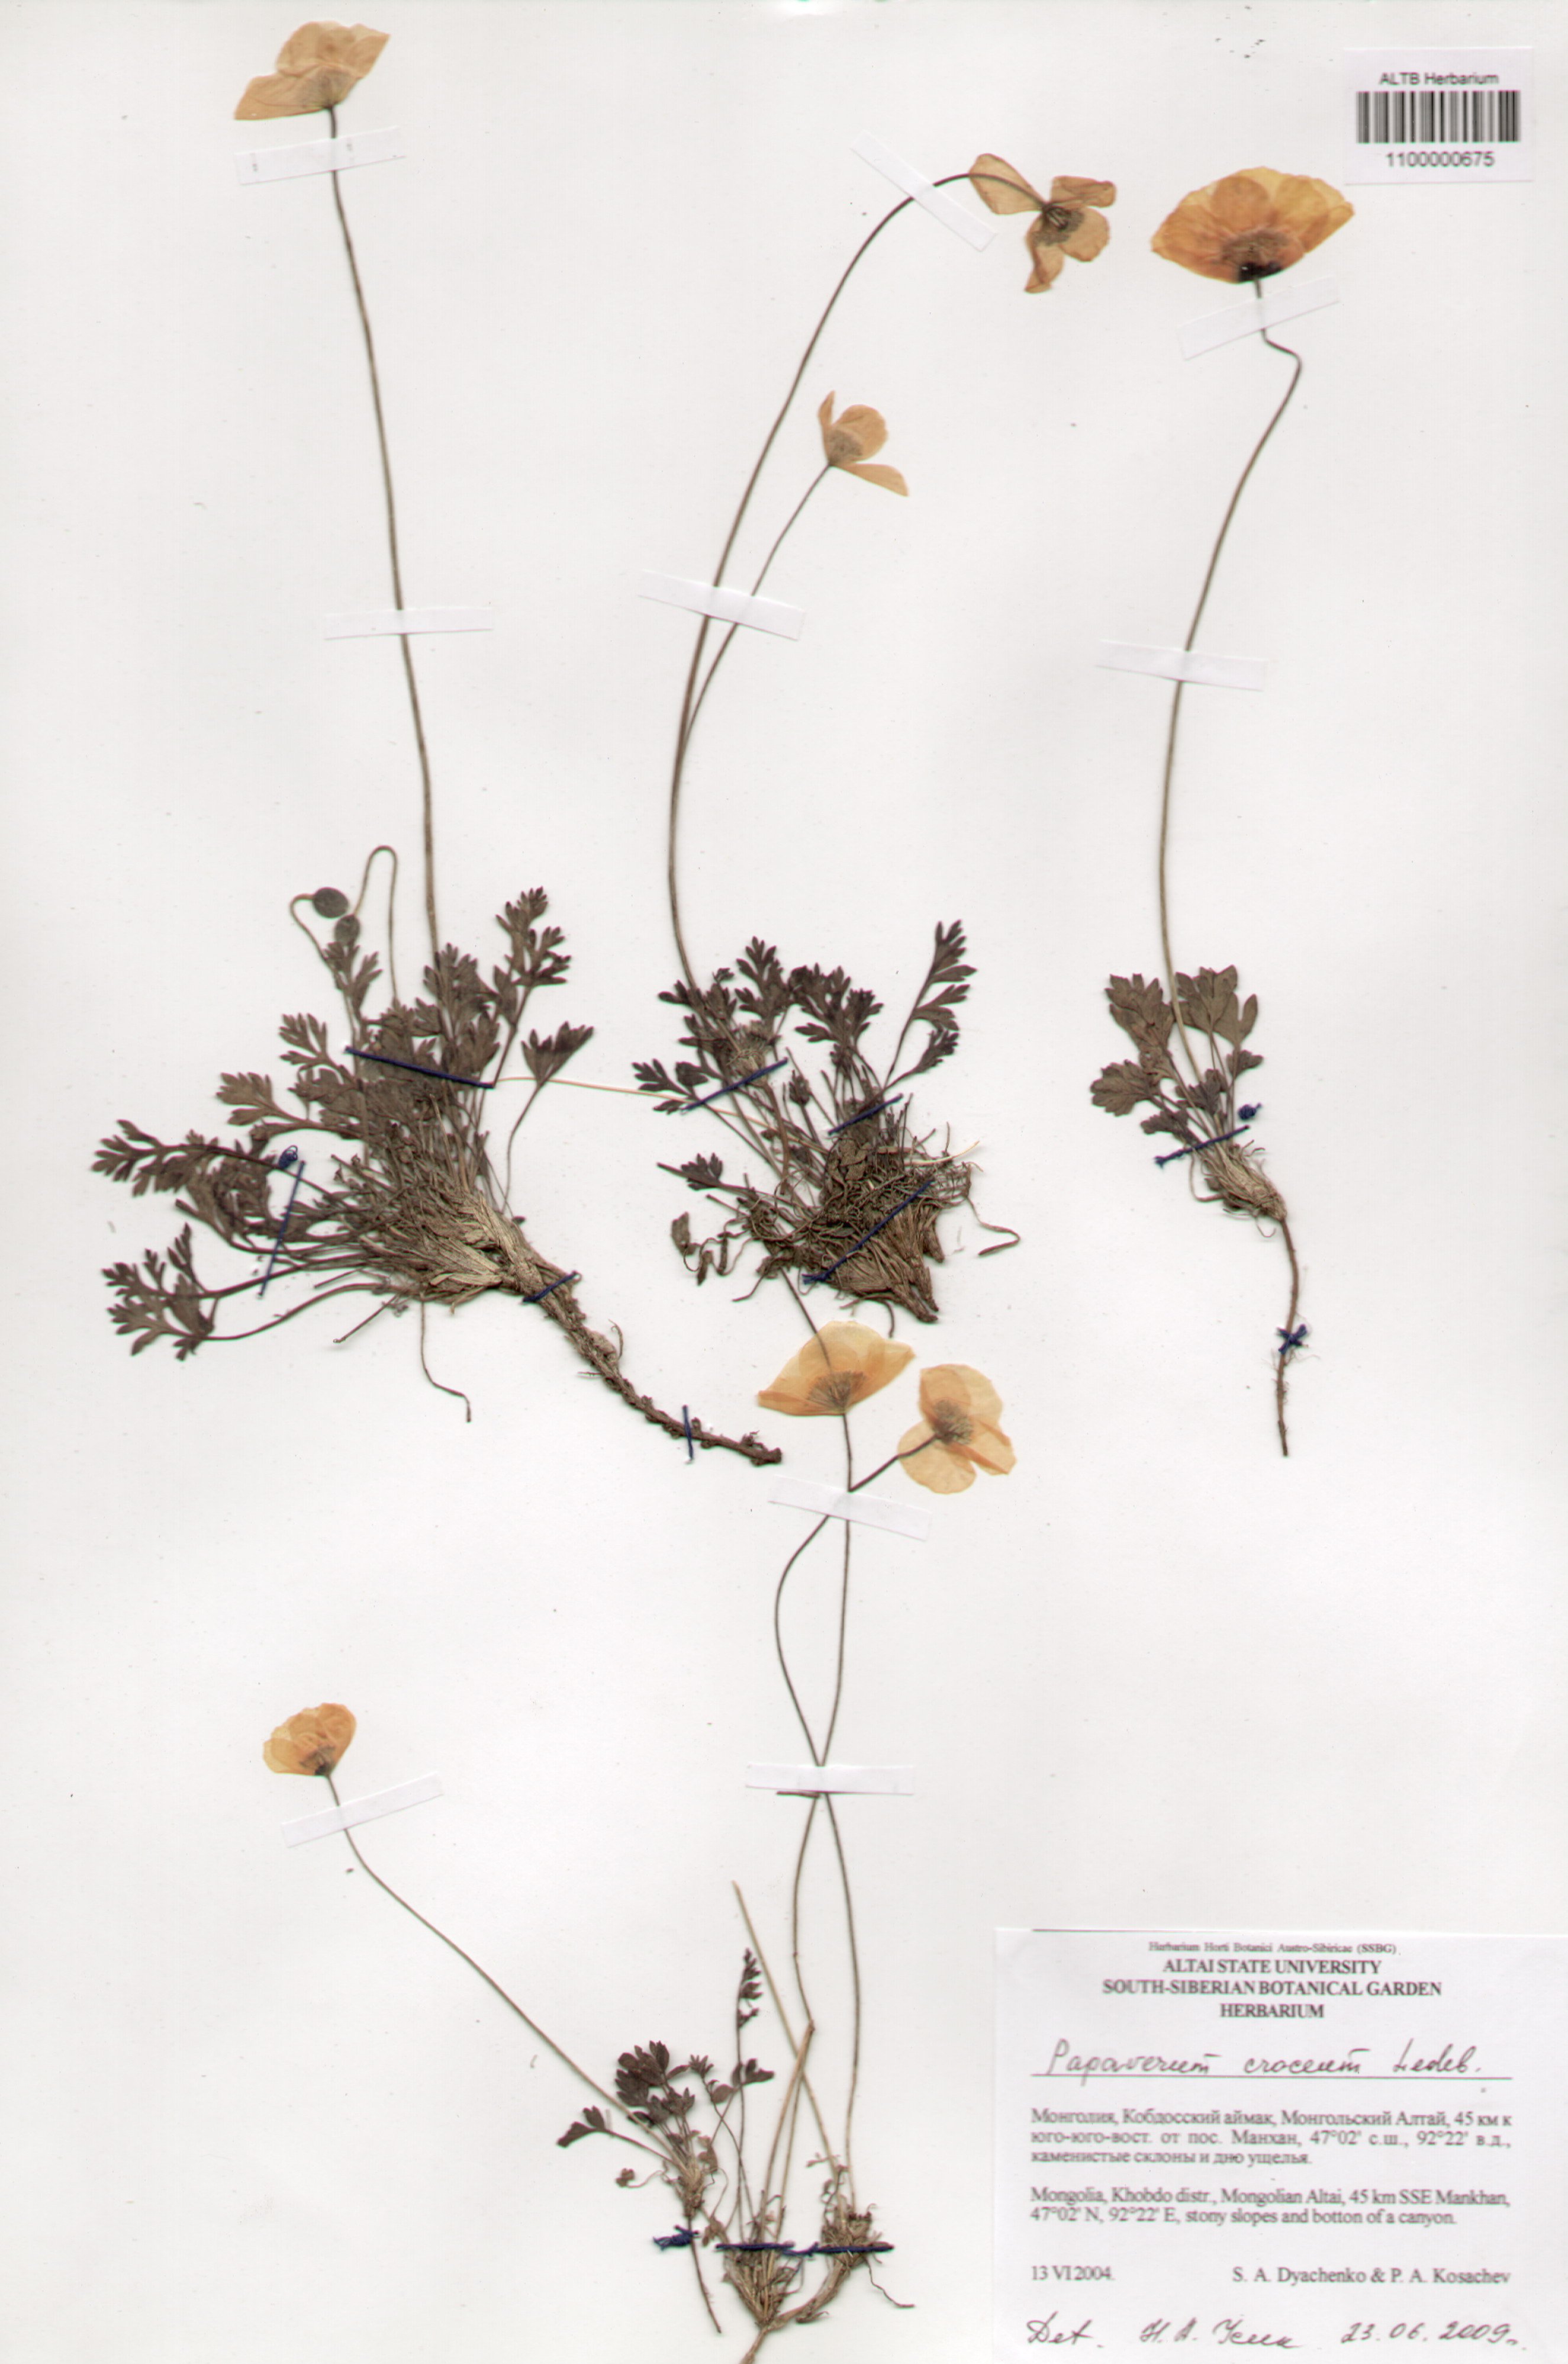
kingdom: Plantae
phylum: Tracheophyta
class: Magnoliopsida
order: Ranunculales
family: Papaveraceae
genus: Papaver
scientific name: Papaver croceum
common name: Siberian poppy
